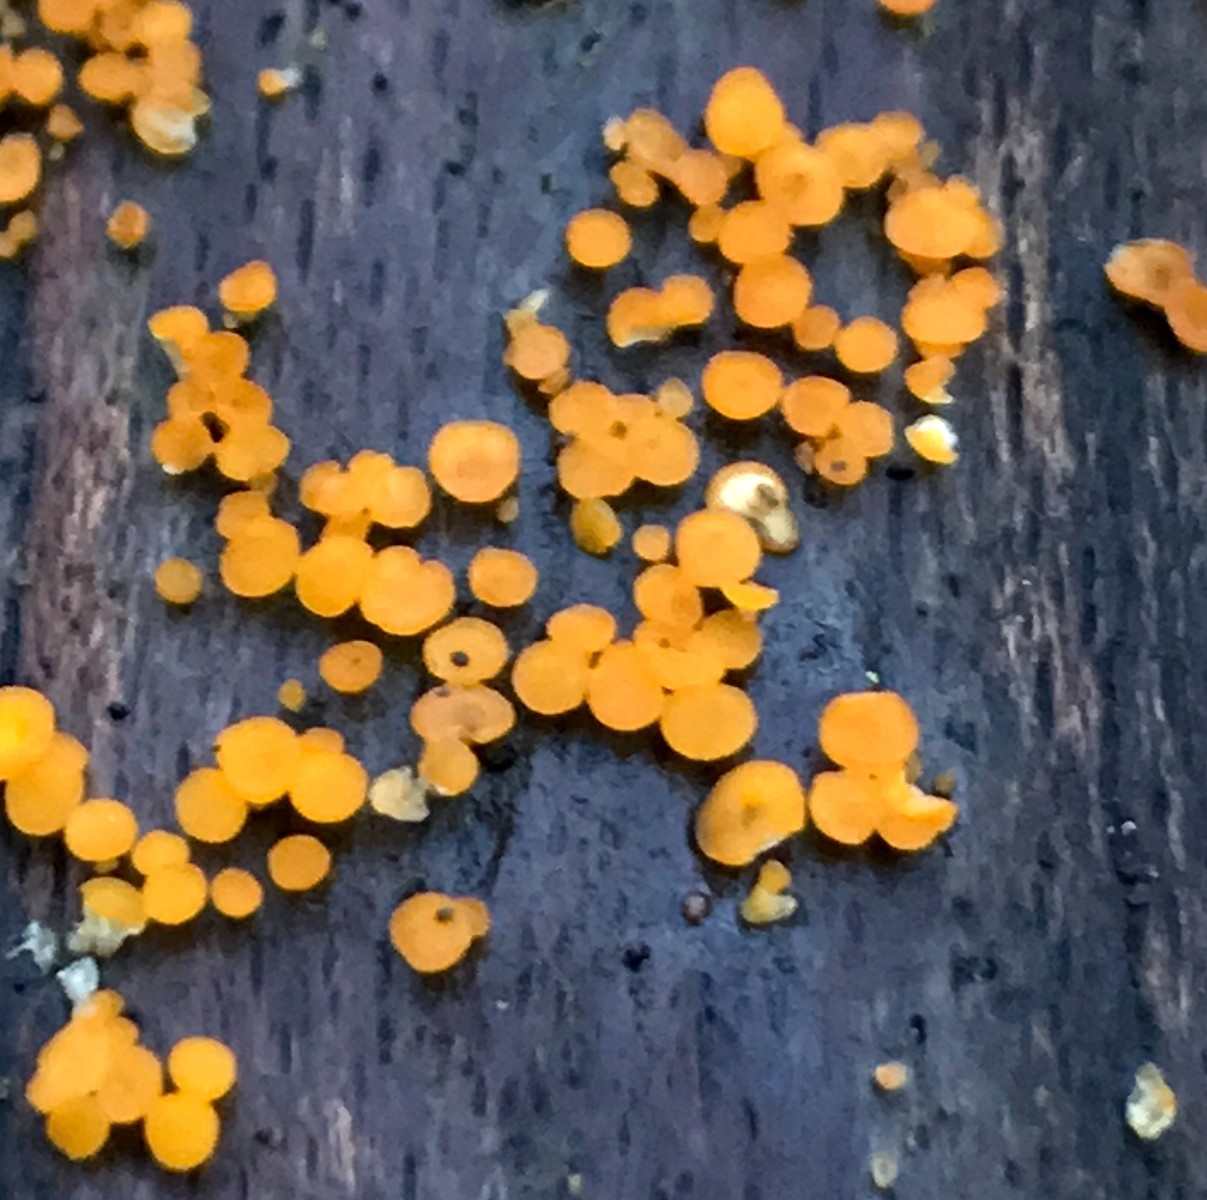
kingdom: Fungi
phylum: Basidiomycota
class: Dacrymycetes
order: Dacrymycetales
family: Dacrymycetaceae
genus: Dacrymyces
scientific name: Dacrymyces stillatus
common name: almindelig tåresvamp
